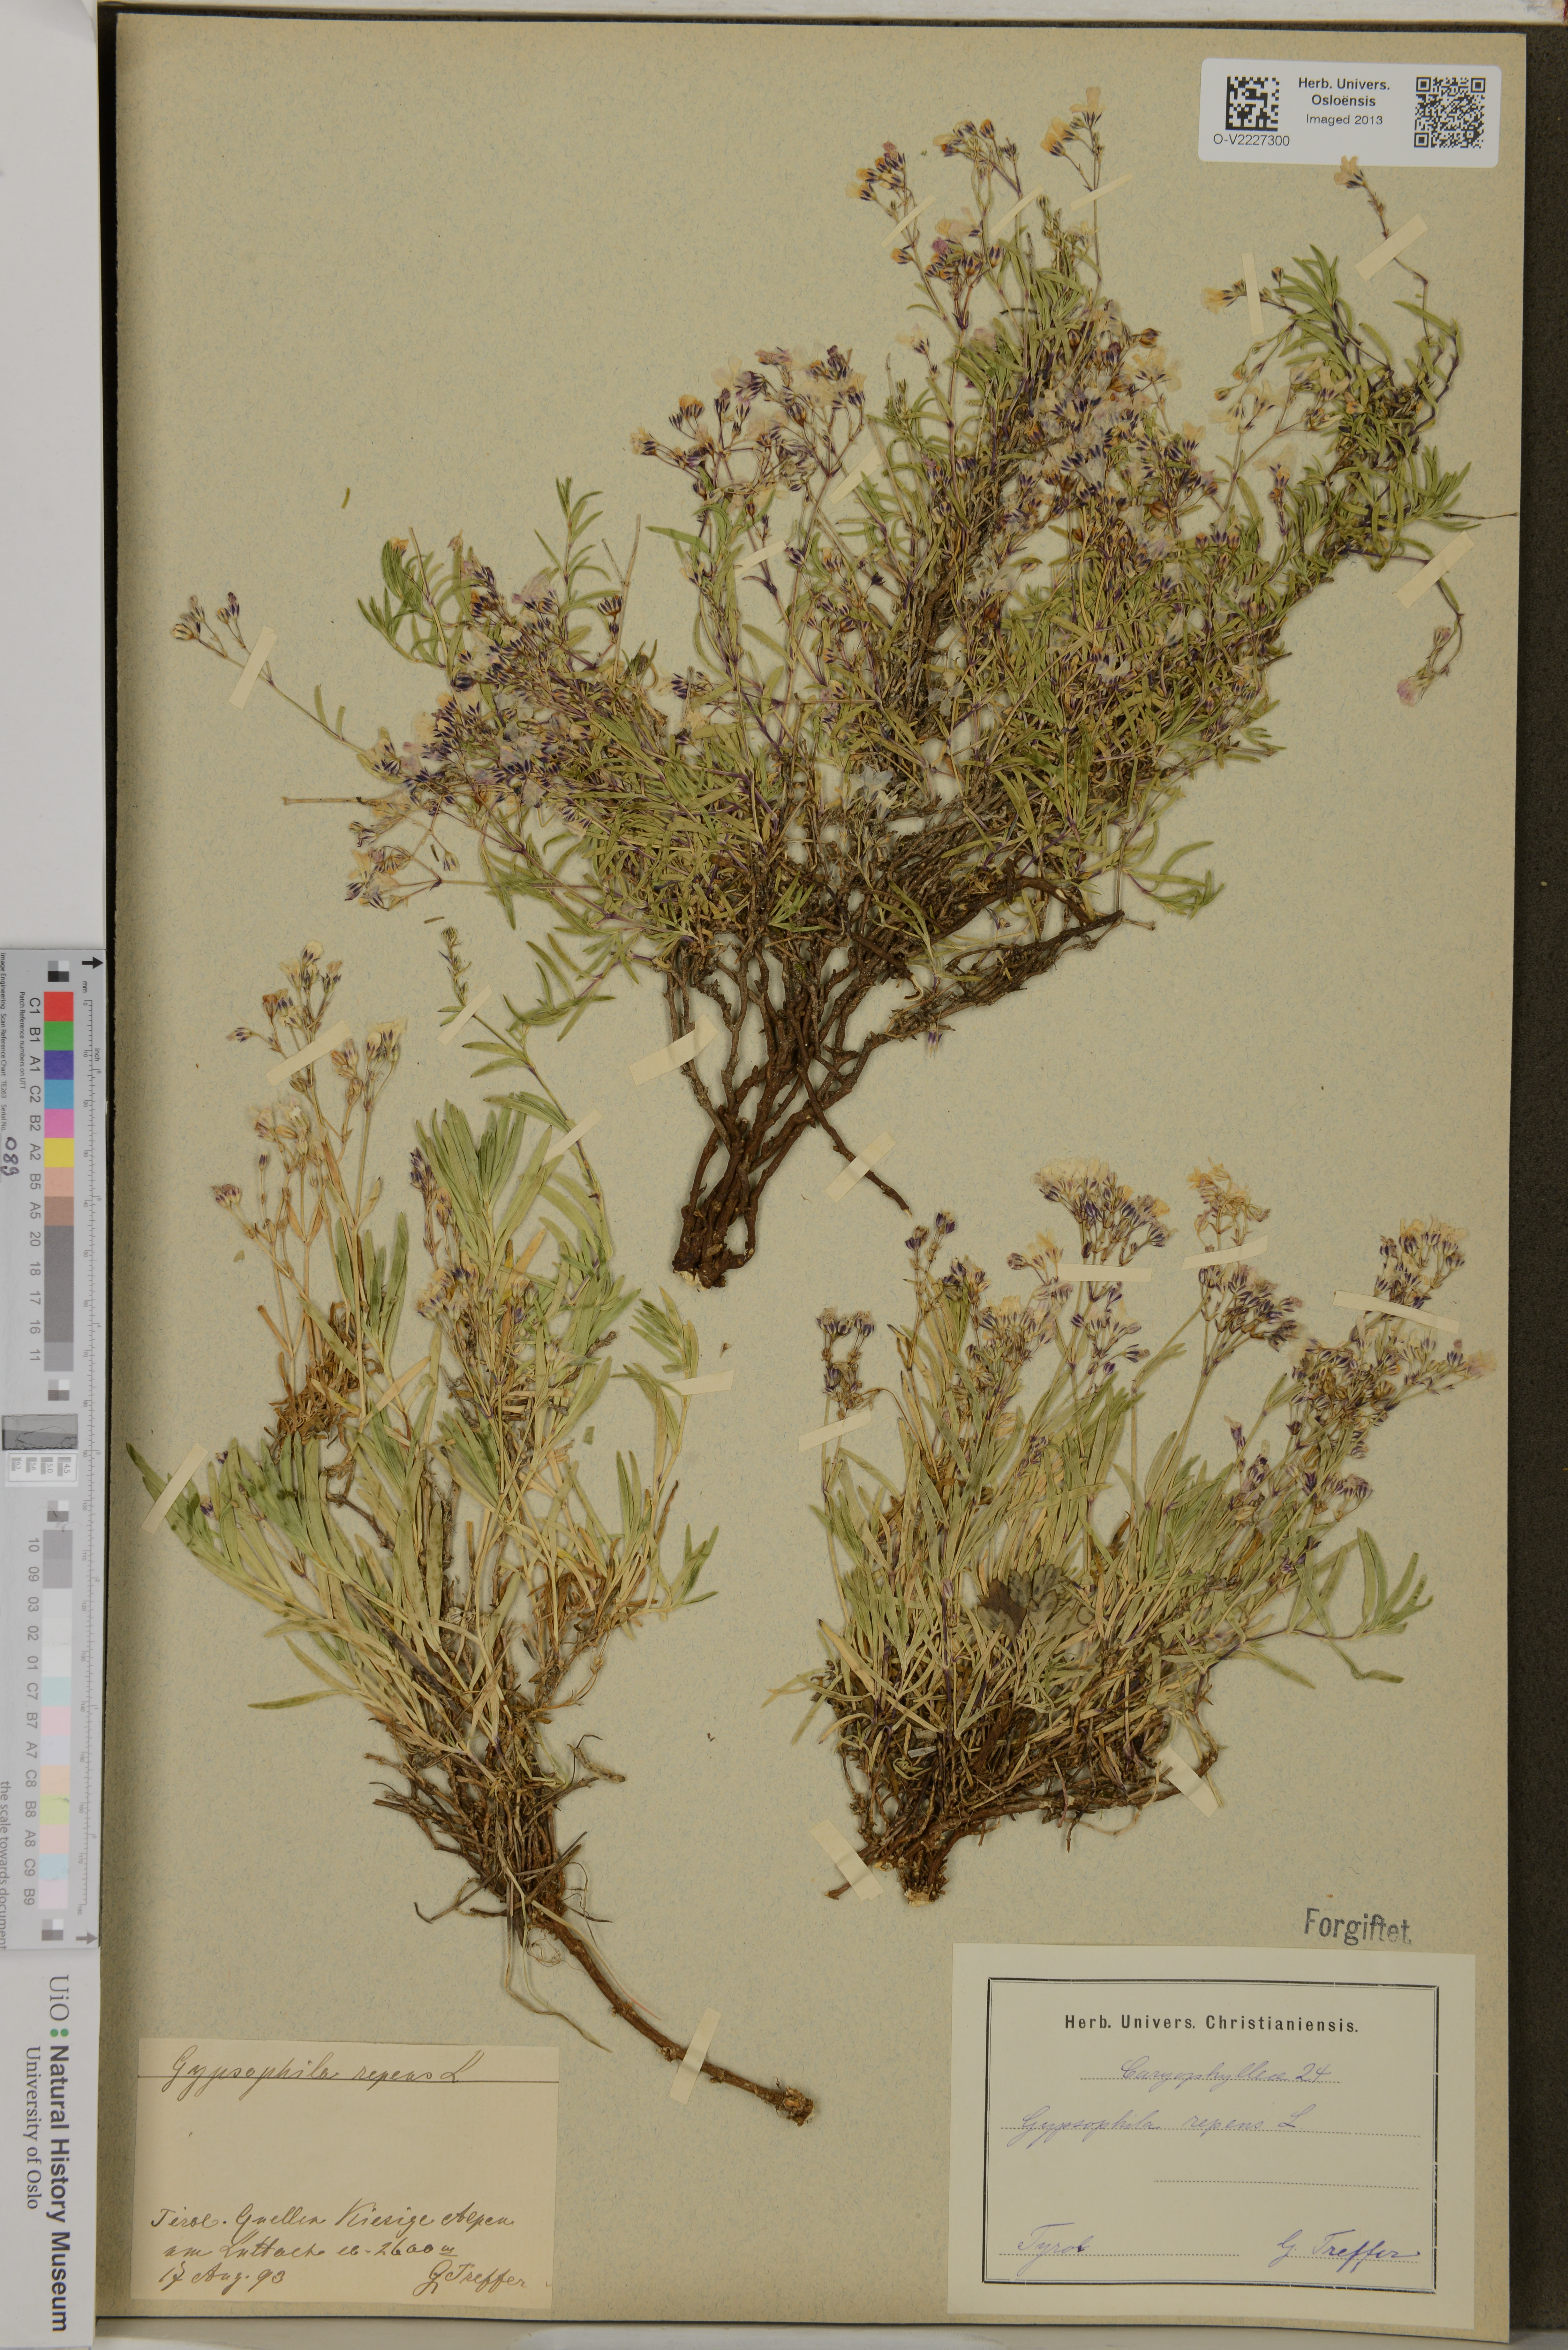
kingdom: Plantae
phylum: Tracheophyta
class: Magnoliopsida
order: Caryophyllales
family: Caryophyllaceae
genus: Gypsophila
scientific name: Gypsophila repens
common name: Creeping baby's-breath
